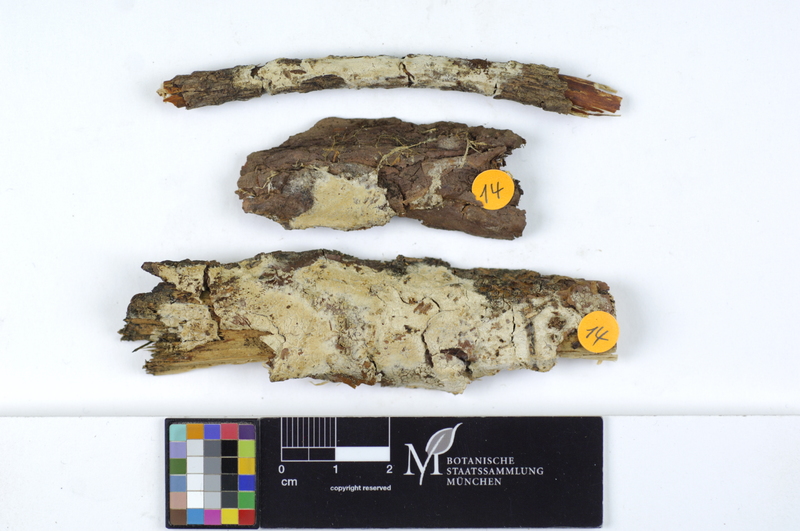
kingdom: Fungi
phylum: Basidiomycota
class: Agaricomycetes
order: Polyporales
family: Irpicaceae
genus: Crystallicutis
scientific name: Crystallicutis serpens
